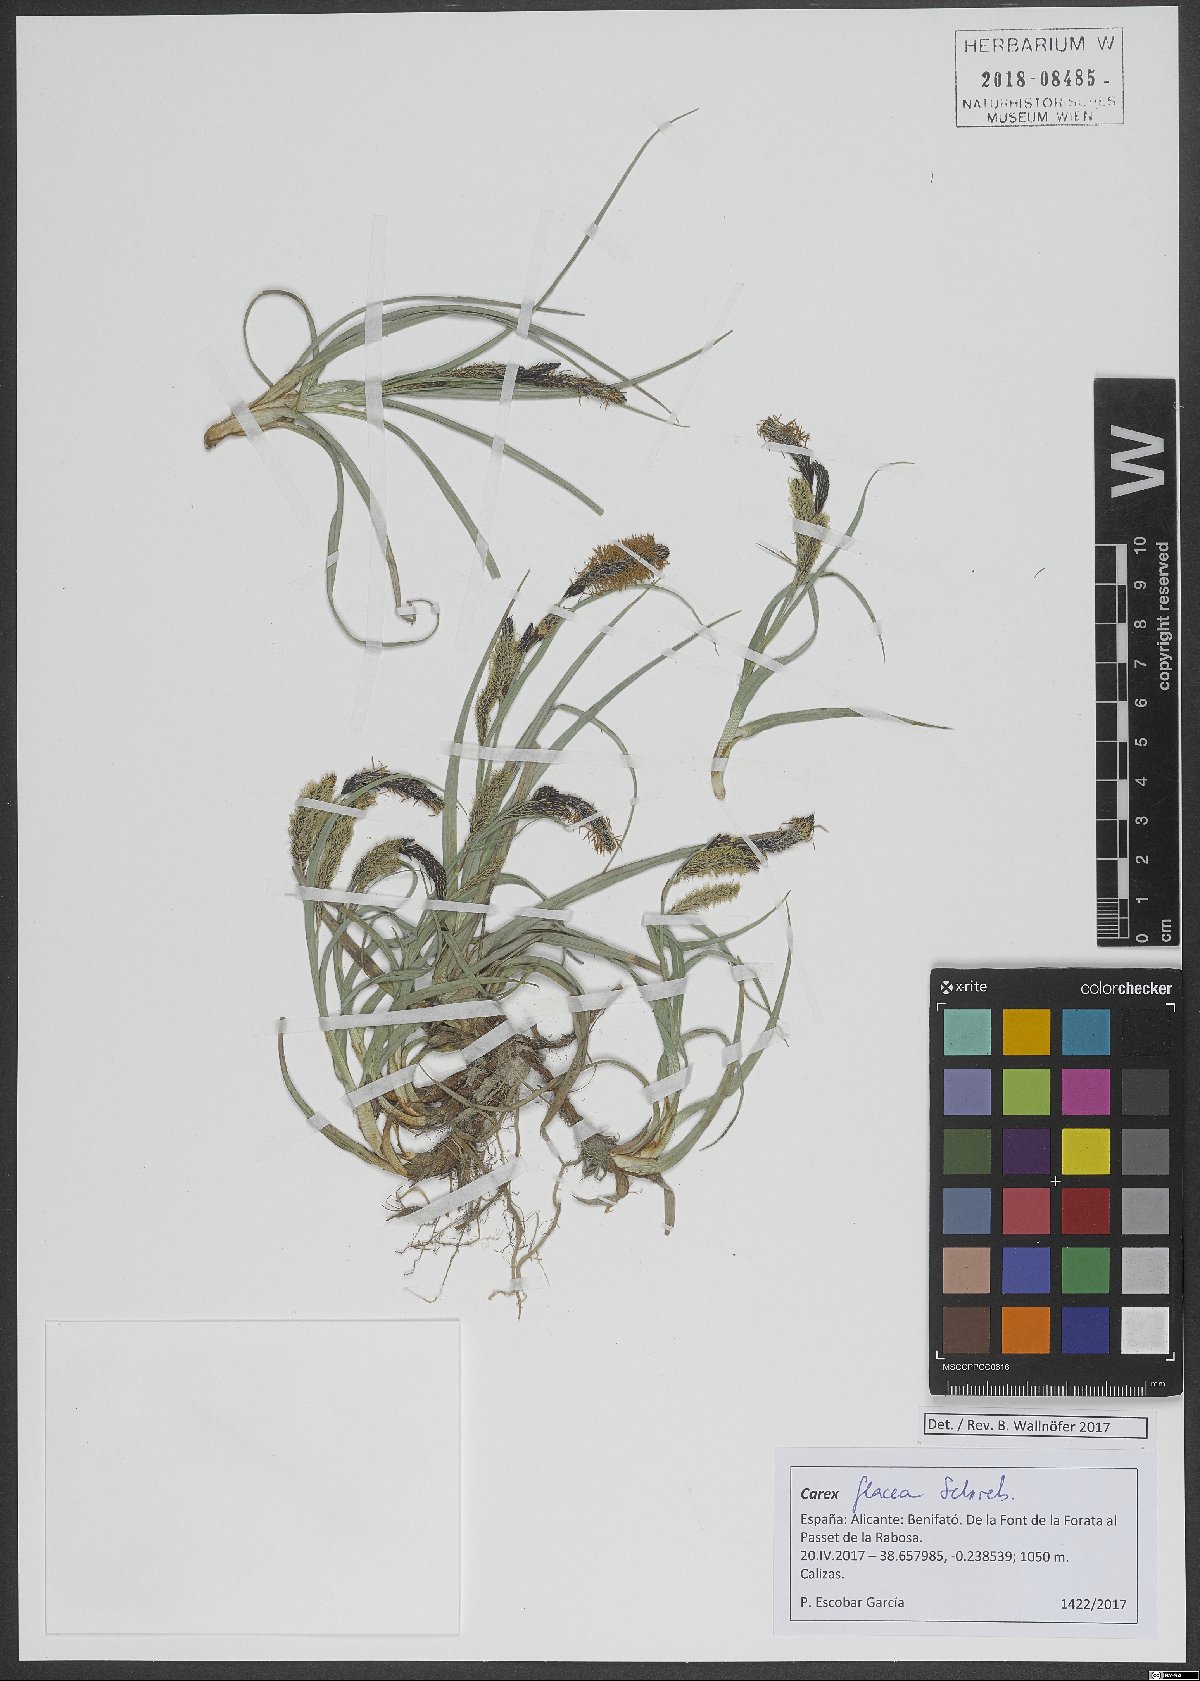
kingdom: Plantae
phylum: Tracheophyta
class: Liliopsida
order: Poales
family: Cyperaceae
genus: Carex
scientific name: Carex flacca
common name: Glaucous sedge
